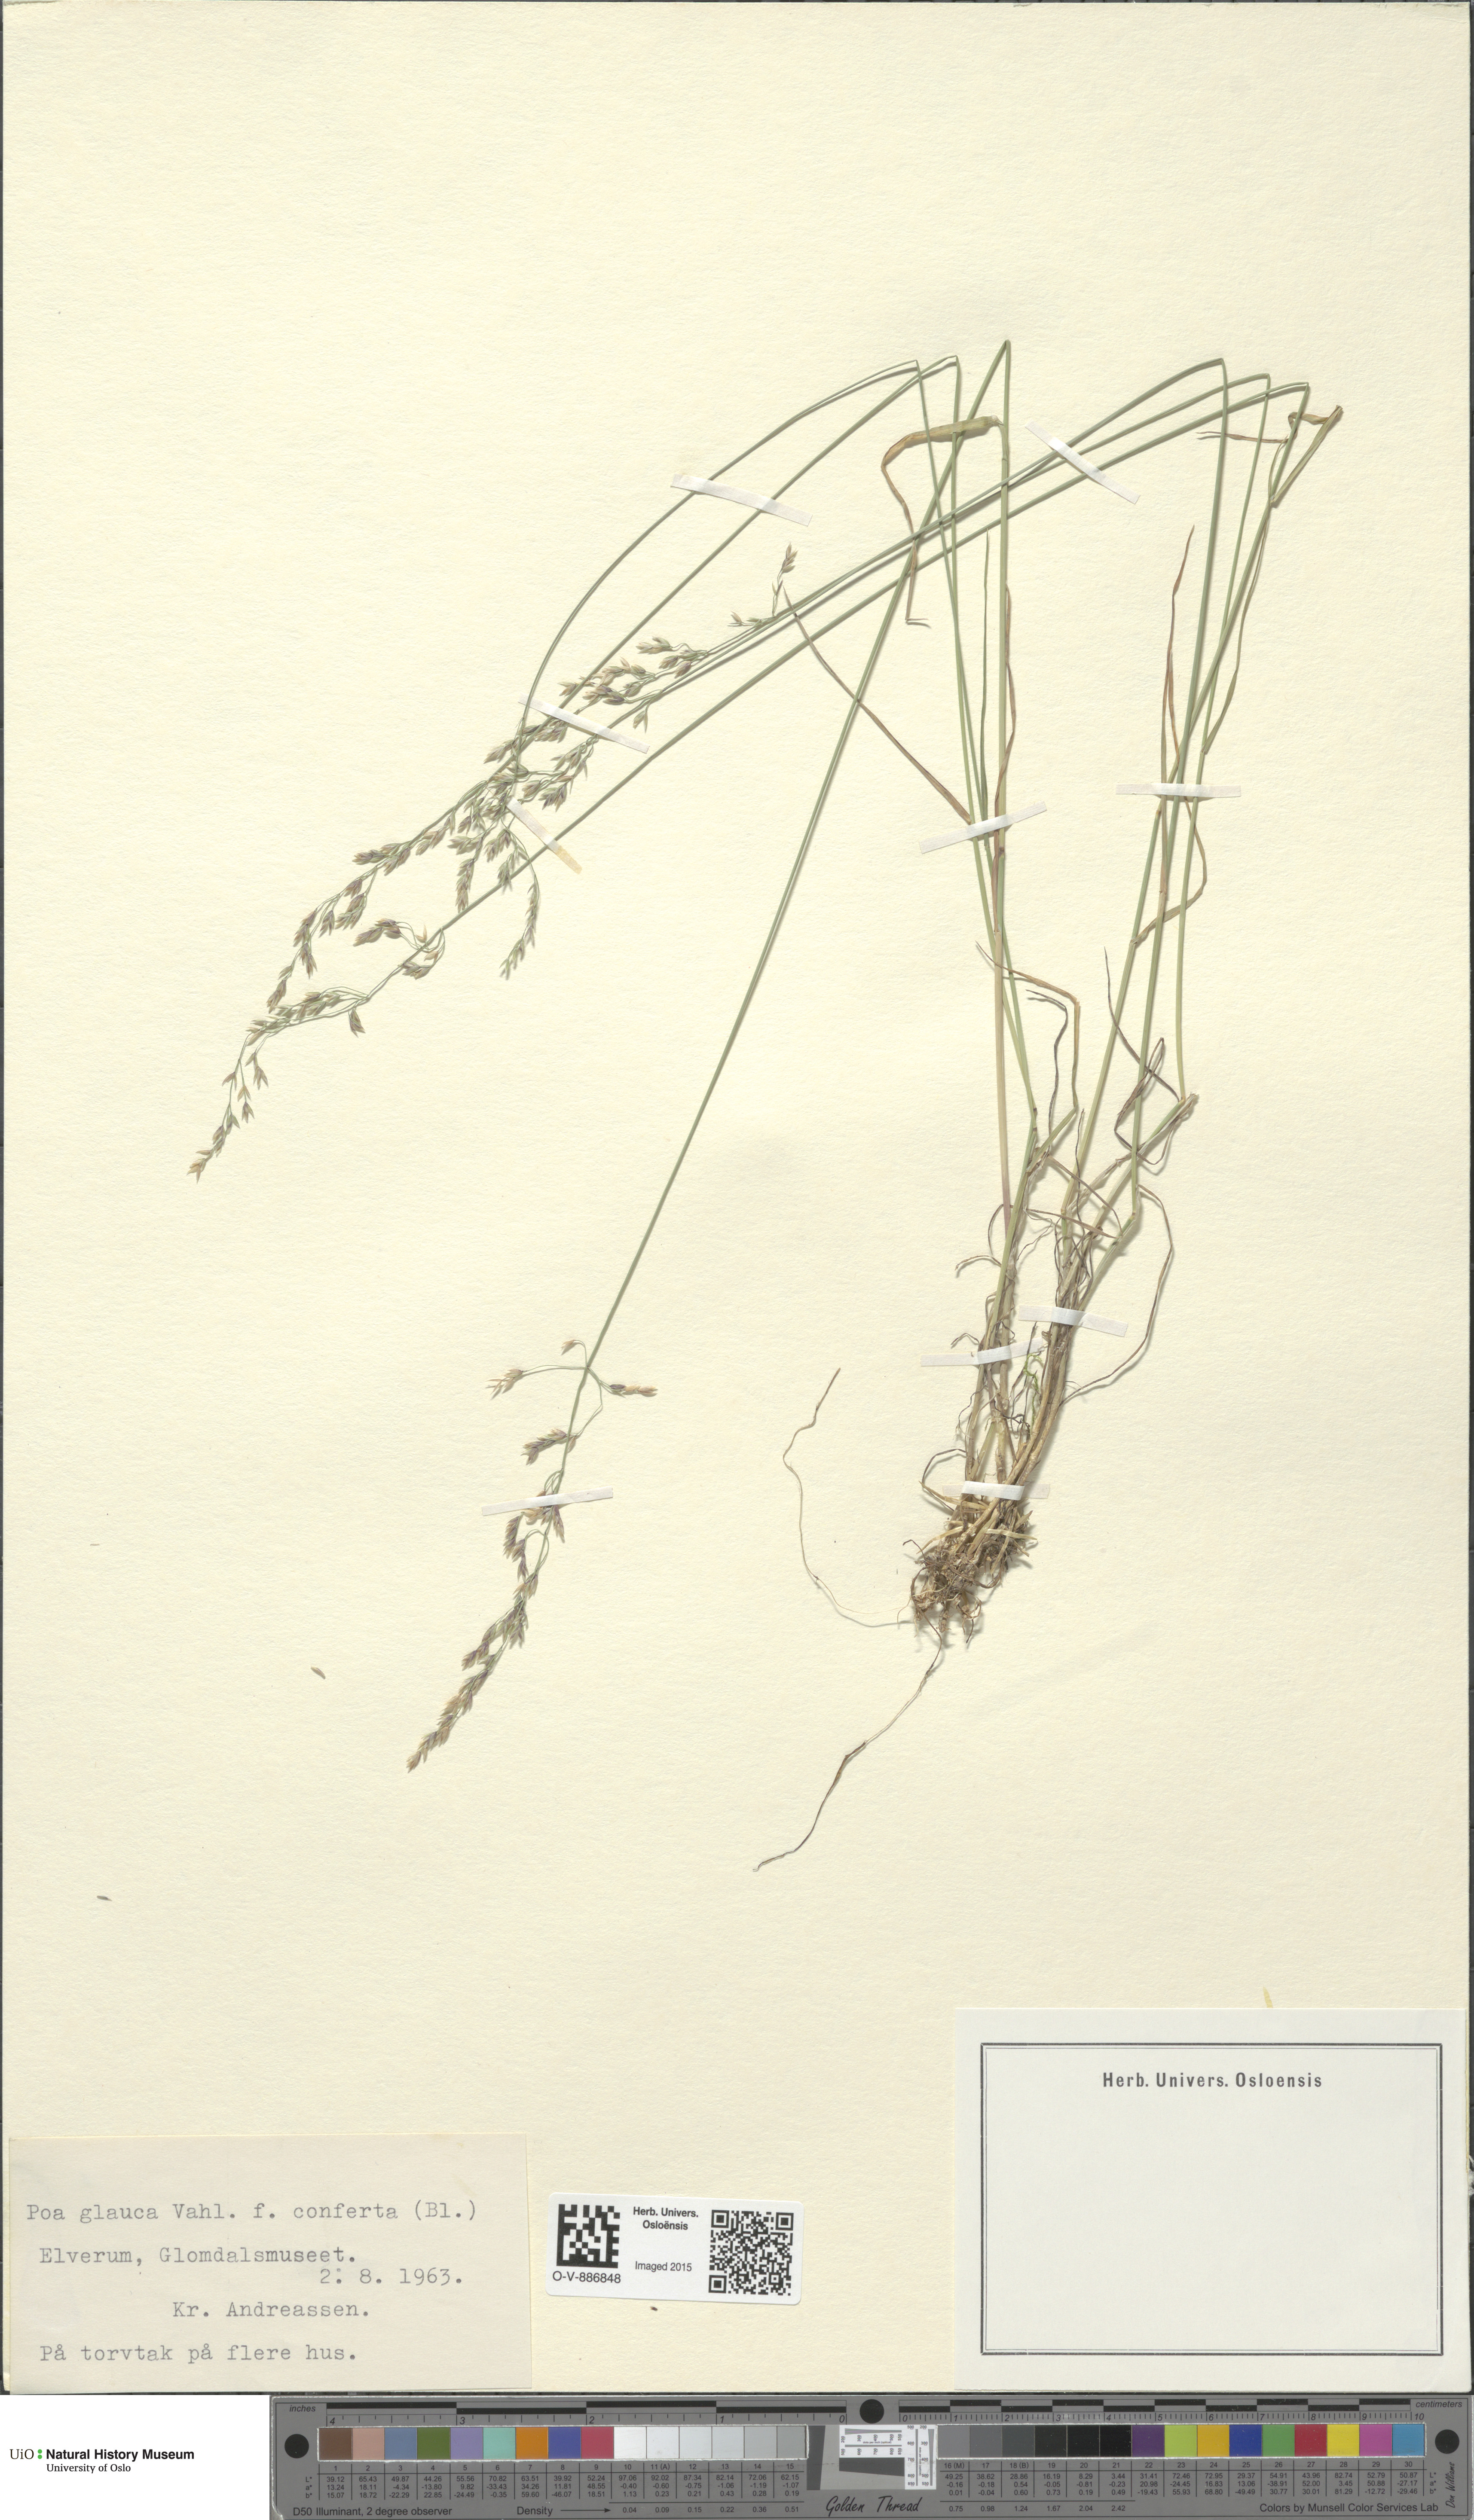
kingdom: Plantae
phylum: Tracheophyta
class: Liliopsida
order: Poales
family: Poaceae
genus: Poa
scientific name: Poa glauca
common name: Glaucous bluegrass
